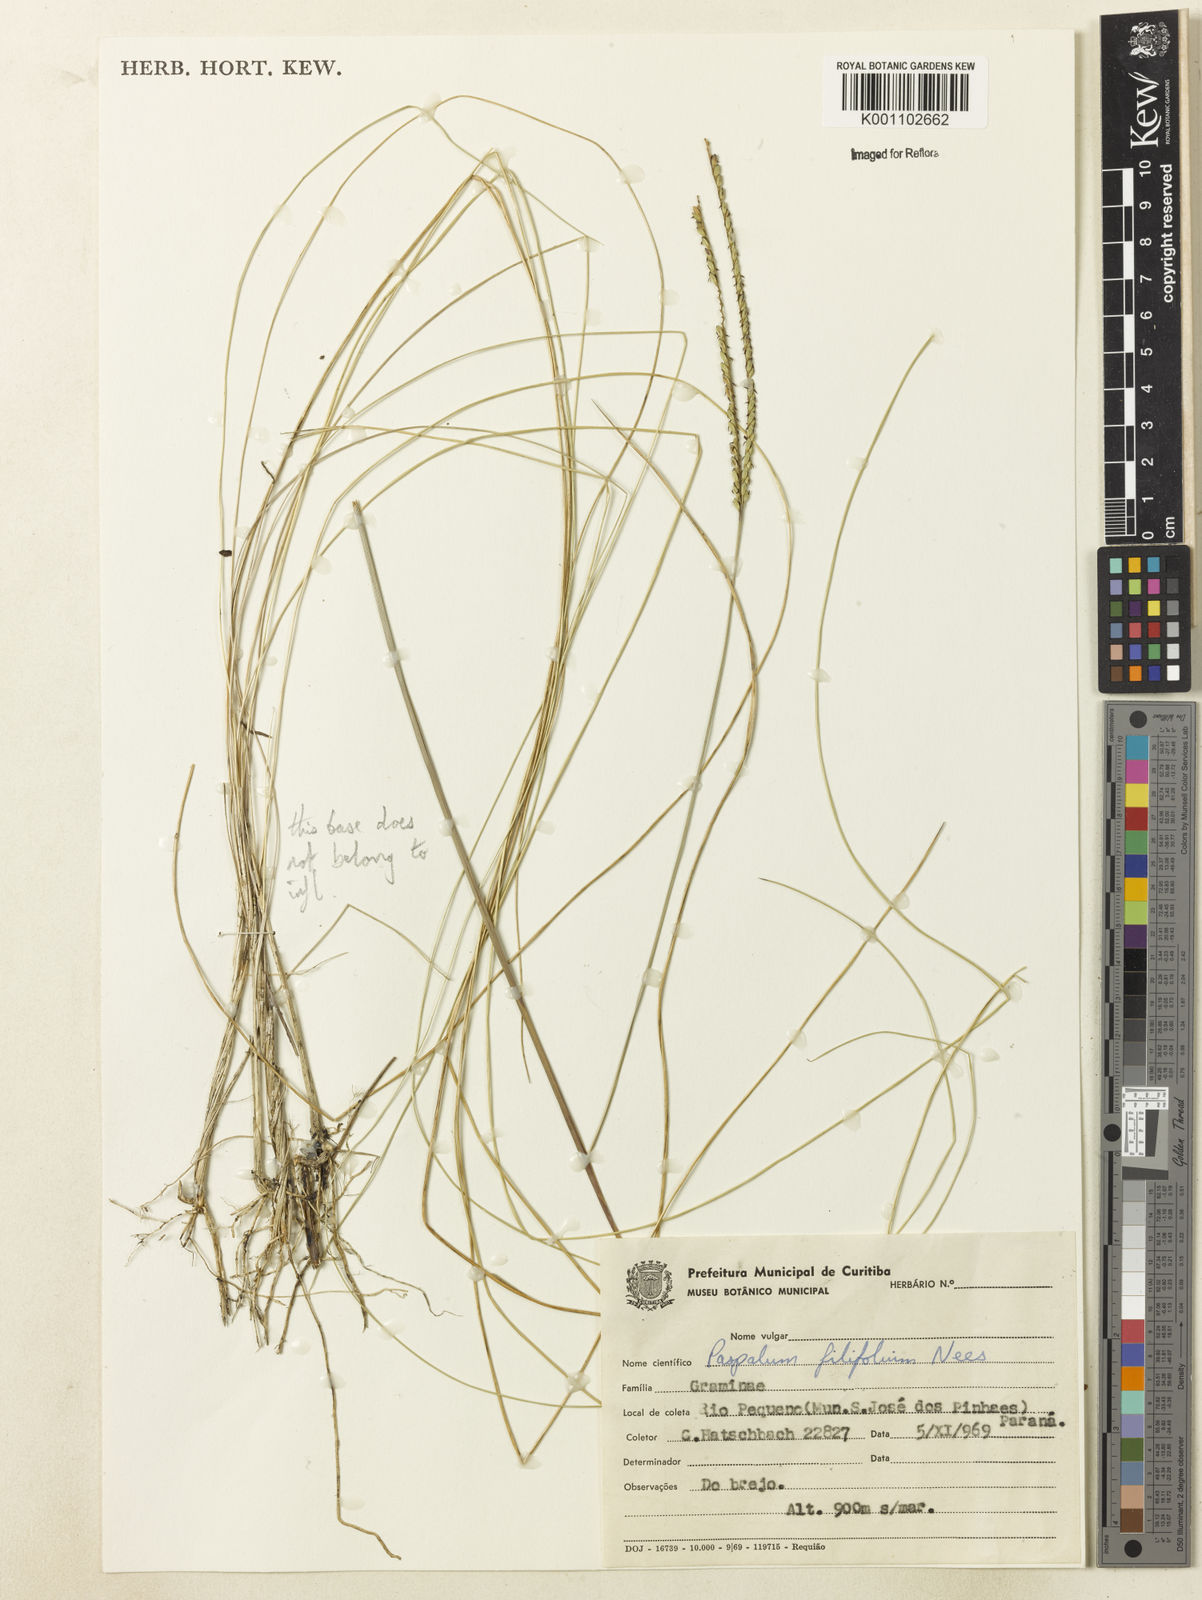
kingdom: Plantae
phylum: Tracheophyta
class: Liliopsida
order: Poales
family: Poaceae
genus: Paspalum
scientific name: Paspalum
